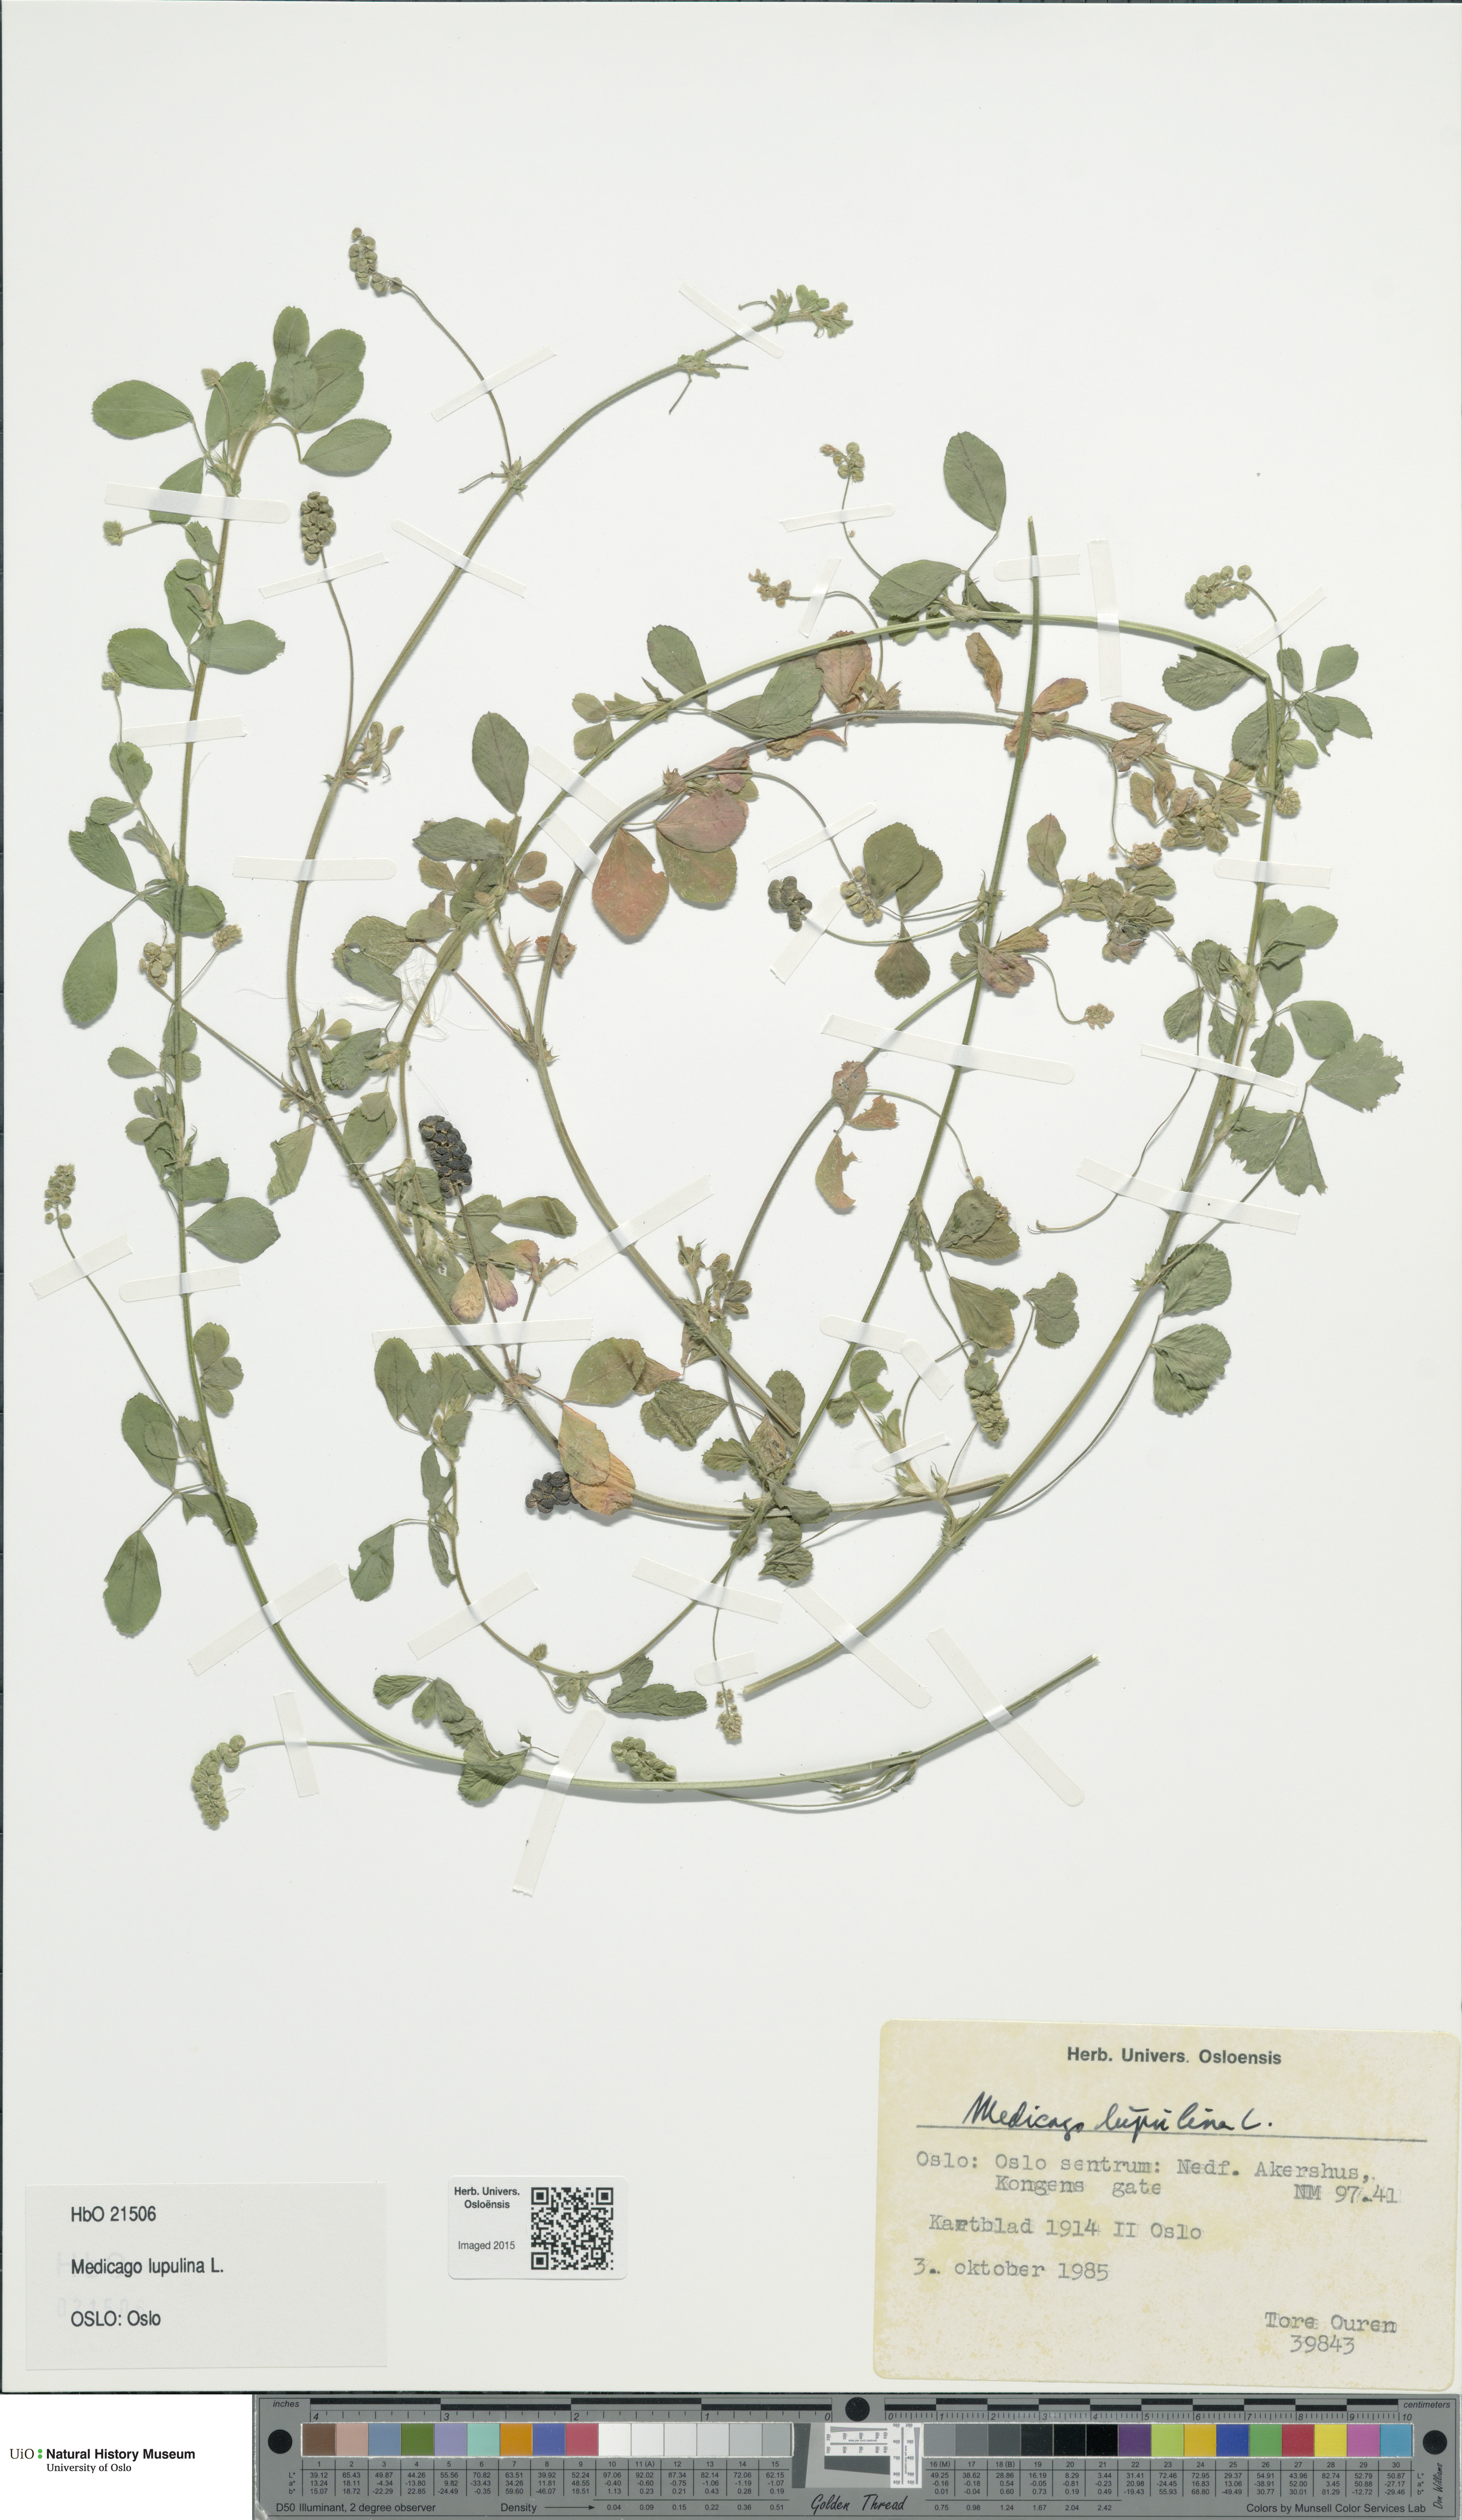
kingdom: Plantae
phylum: Tracheophyta
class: Magnoliopsida
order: Fabales
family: Fabaceae
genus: Medicago
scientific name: Medicago lupulina
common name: Black medick
